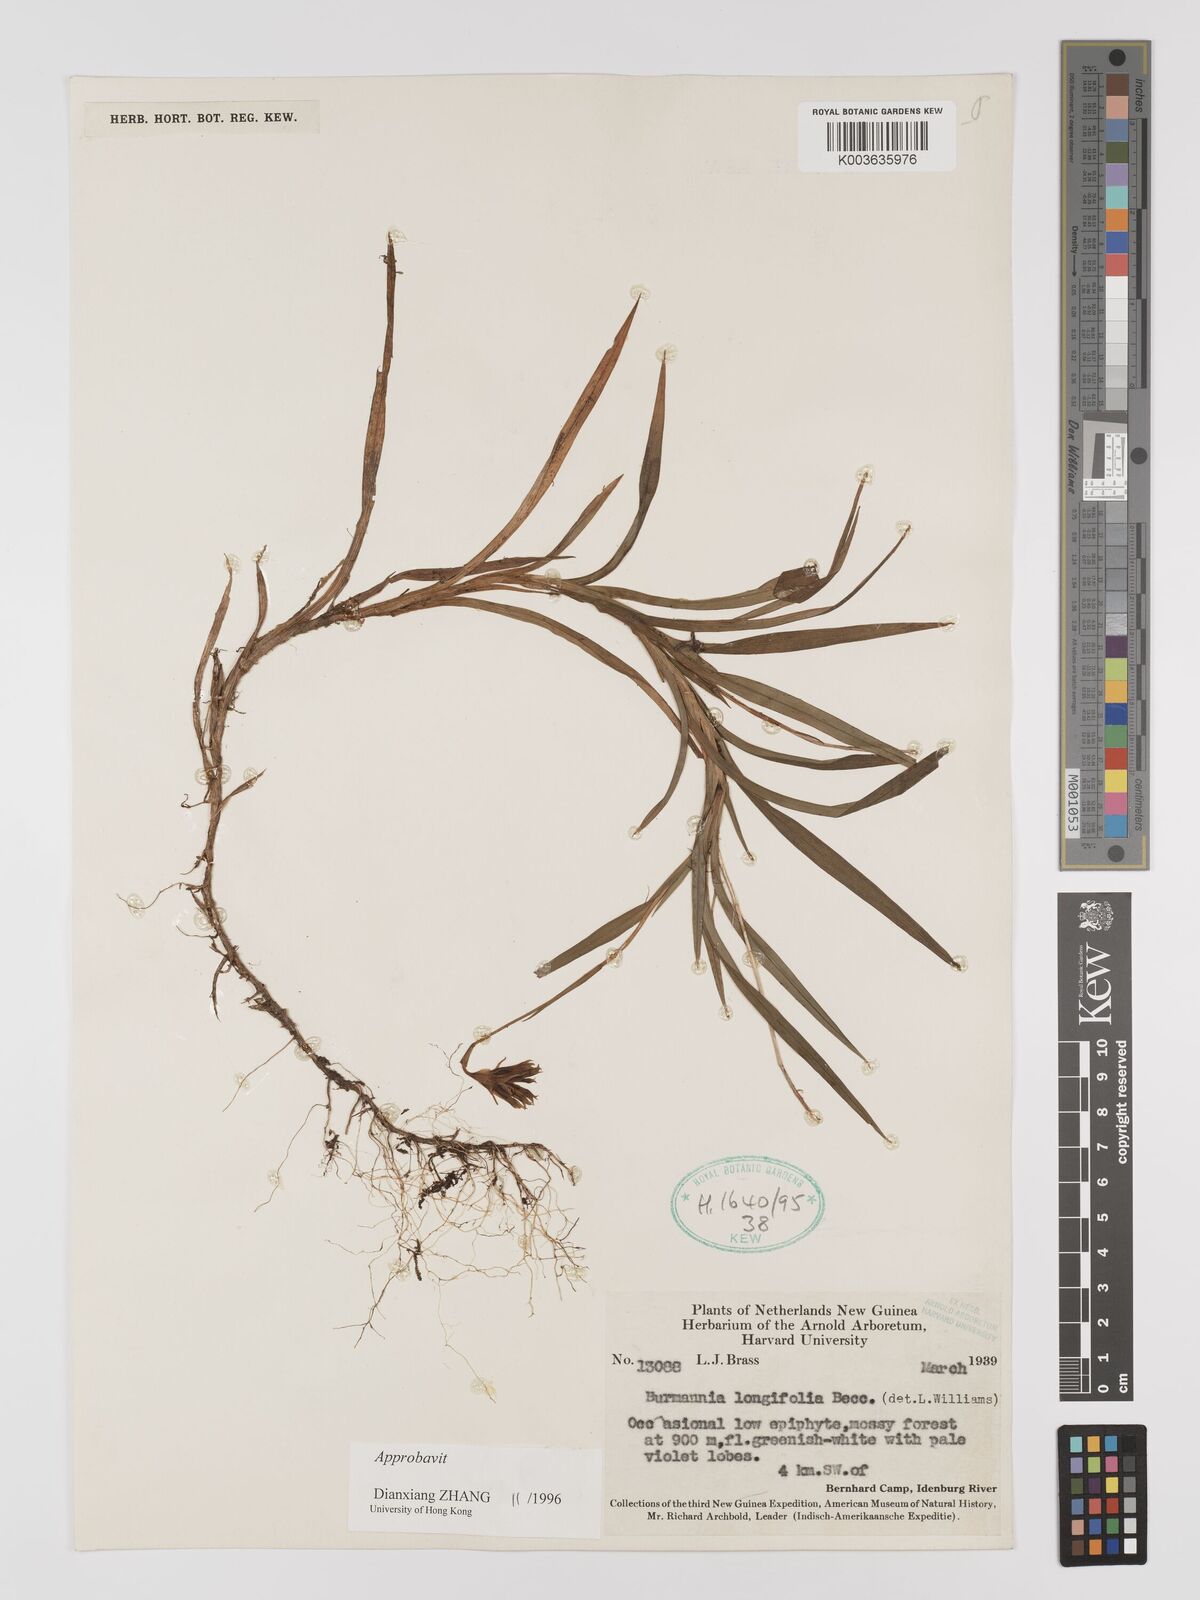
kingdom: Plantae
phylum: Tracheophyta
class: Liliopsida
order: Dioscoreales
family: Burmanniaceae
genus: Burmannia
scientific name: Burmannia longifolia
